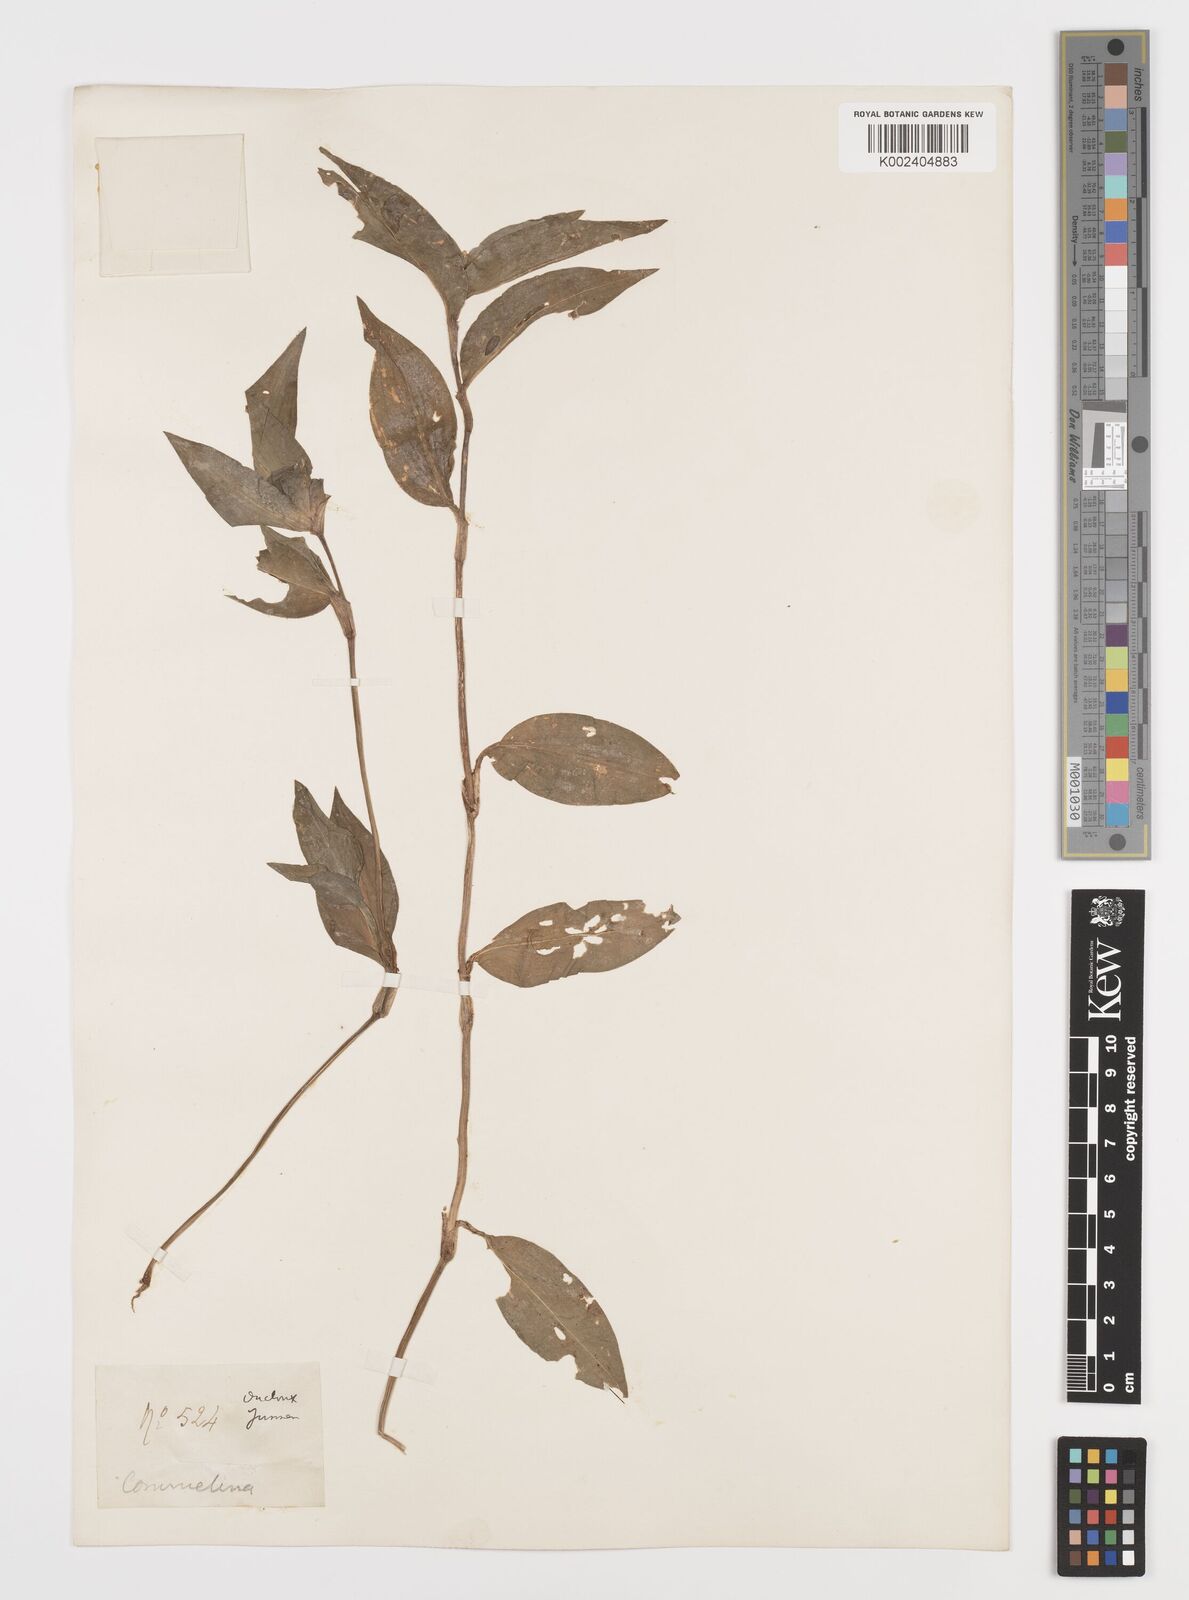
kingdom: Plantae
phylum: Tracheophyta
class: Liliopsida
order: Commelinales
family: Commelinaceae
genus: Commelina
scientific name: Commelina
